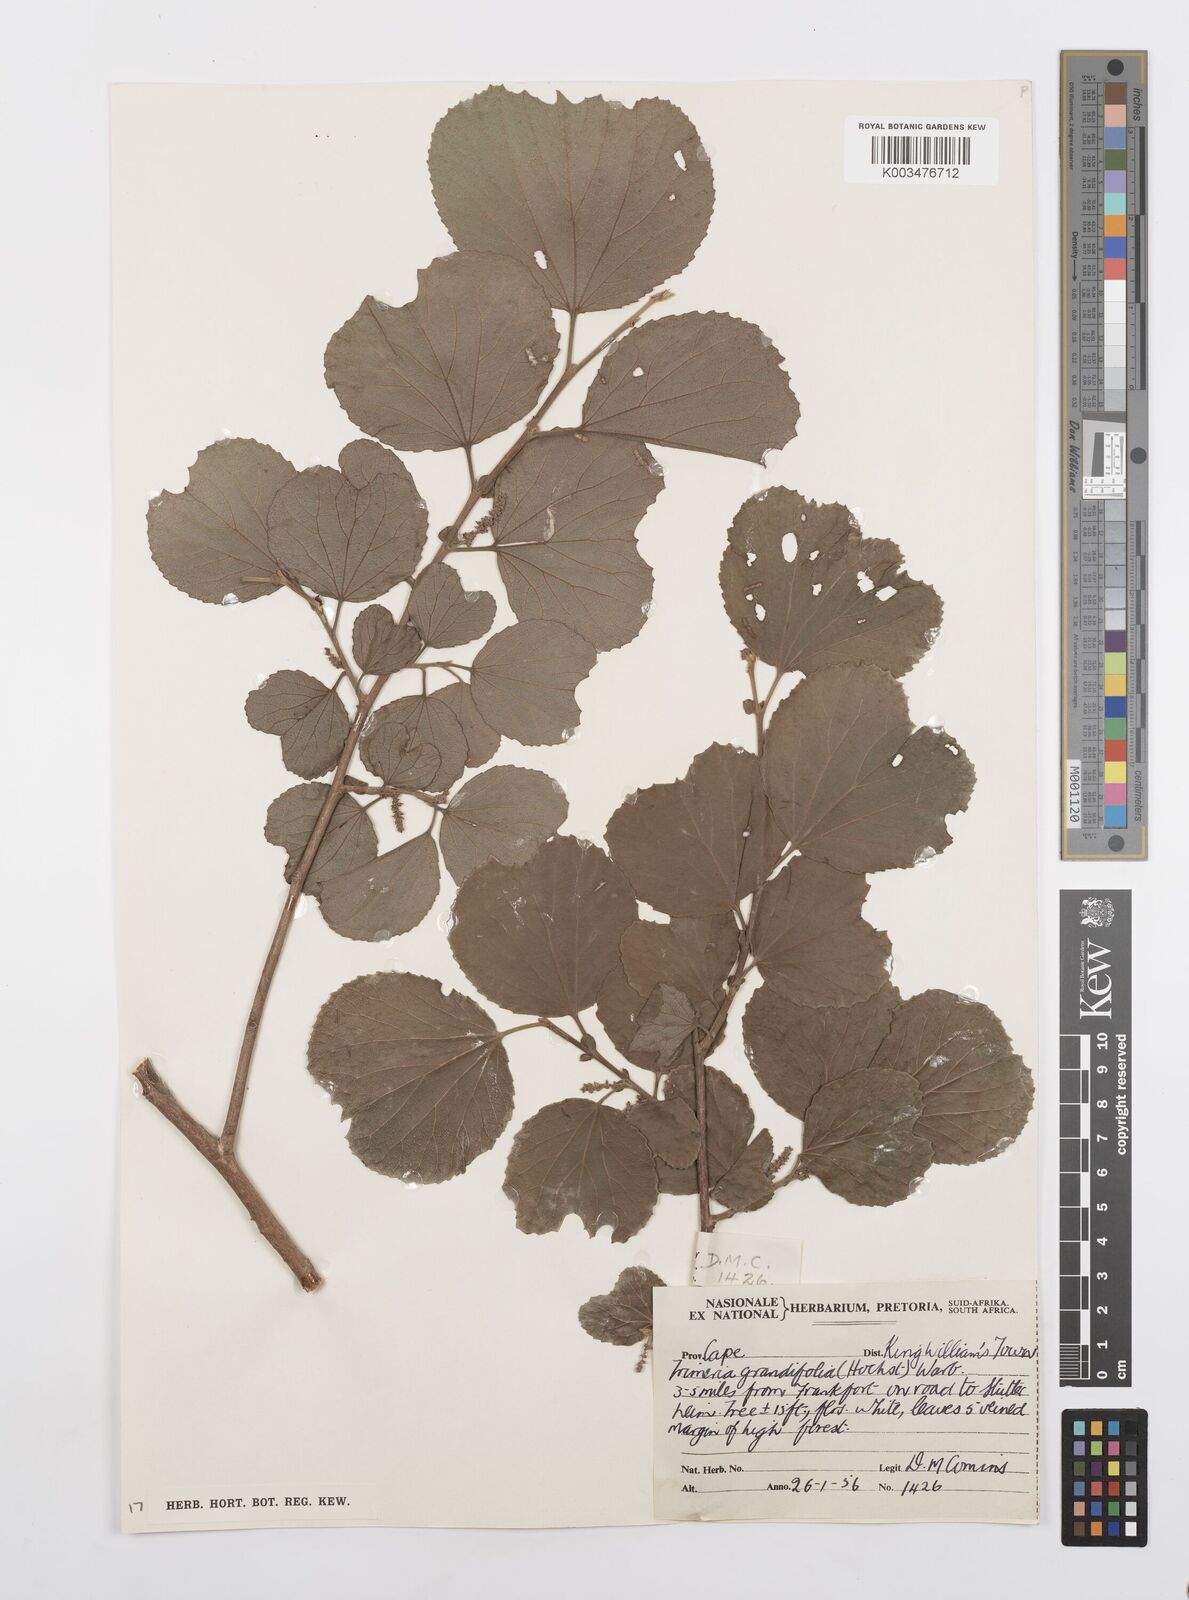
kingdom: Plantae
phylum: Tracheophyta
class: Magnoliopsida
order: Malpighiales
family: Salicaceae
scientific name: Salicaceae
